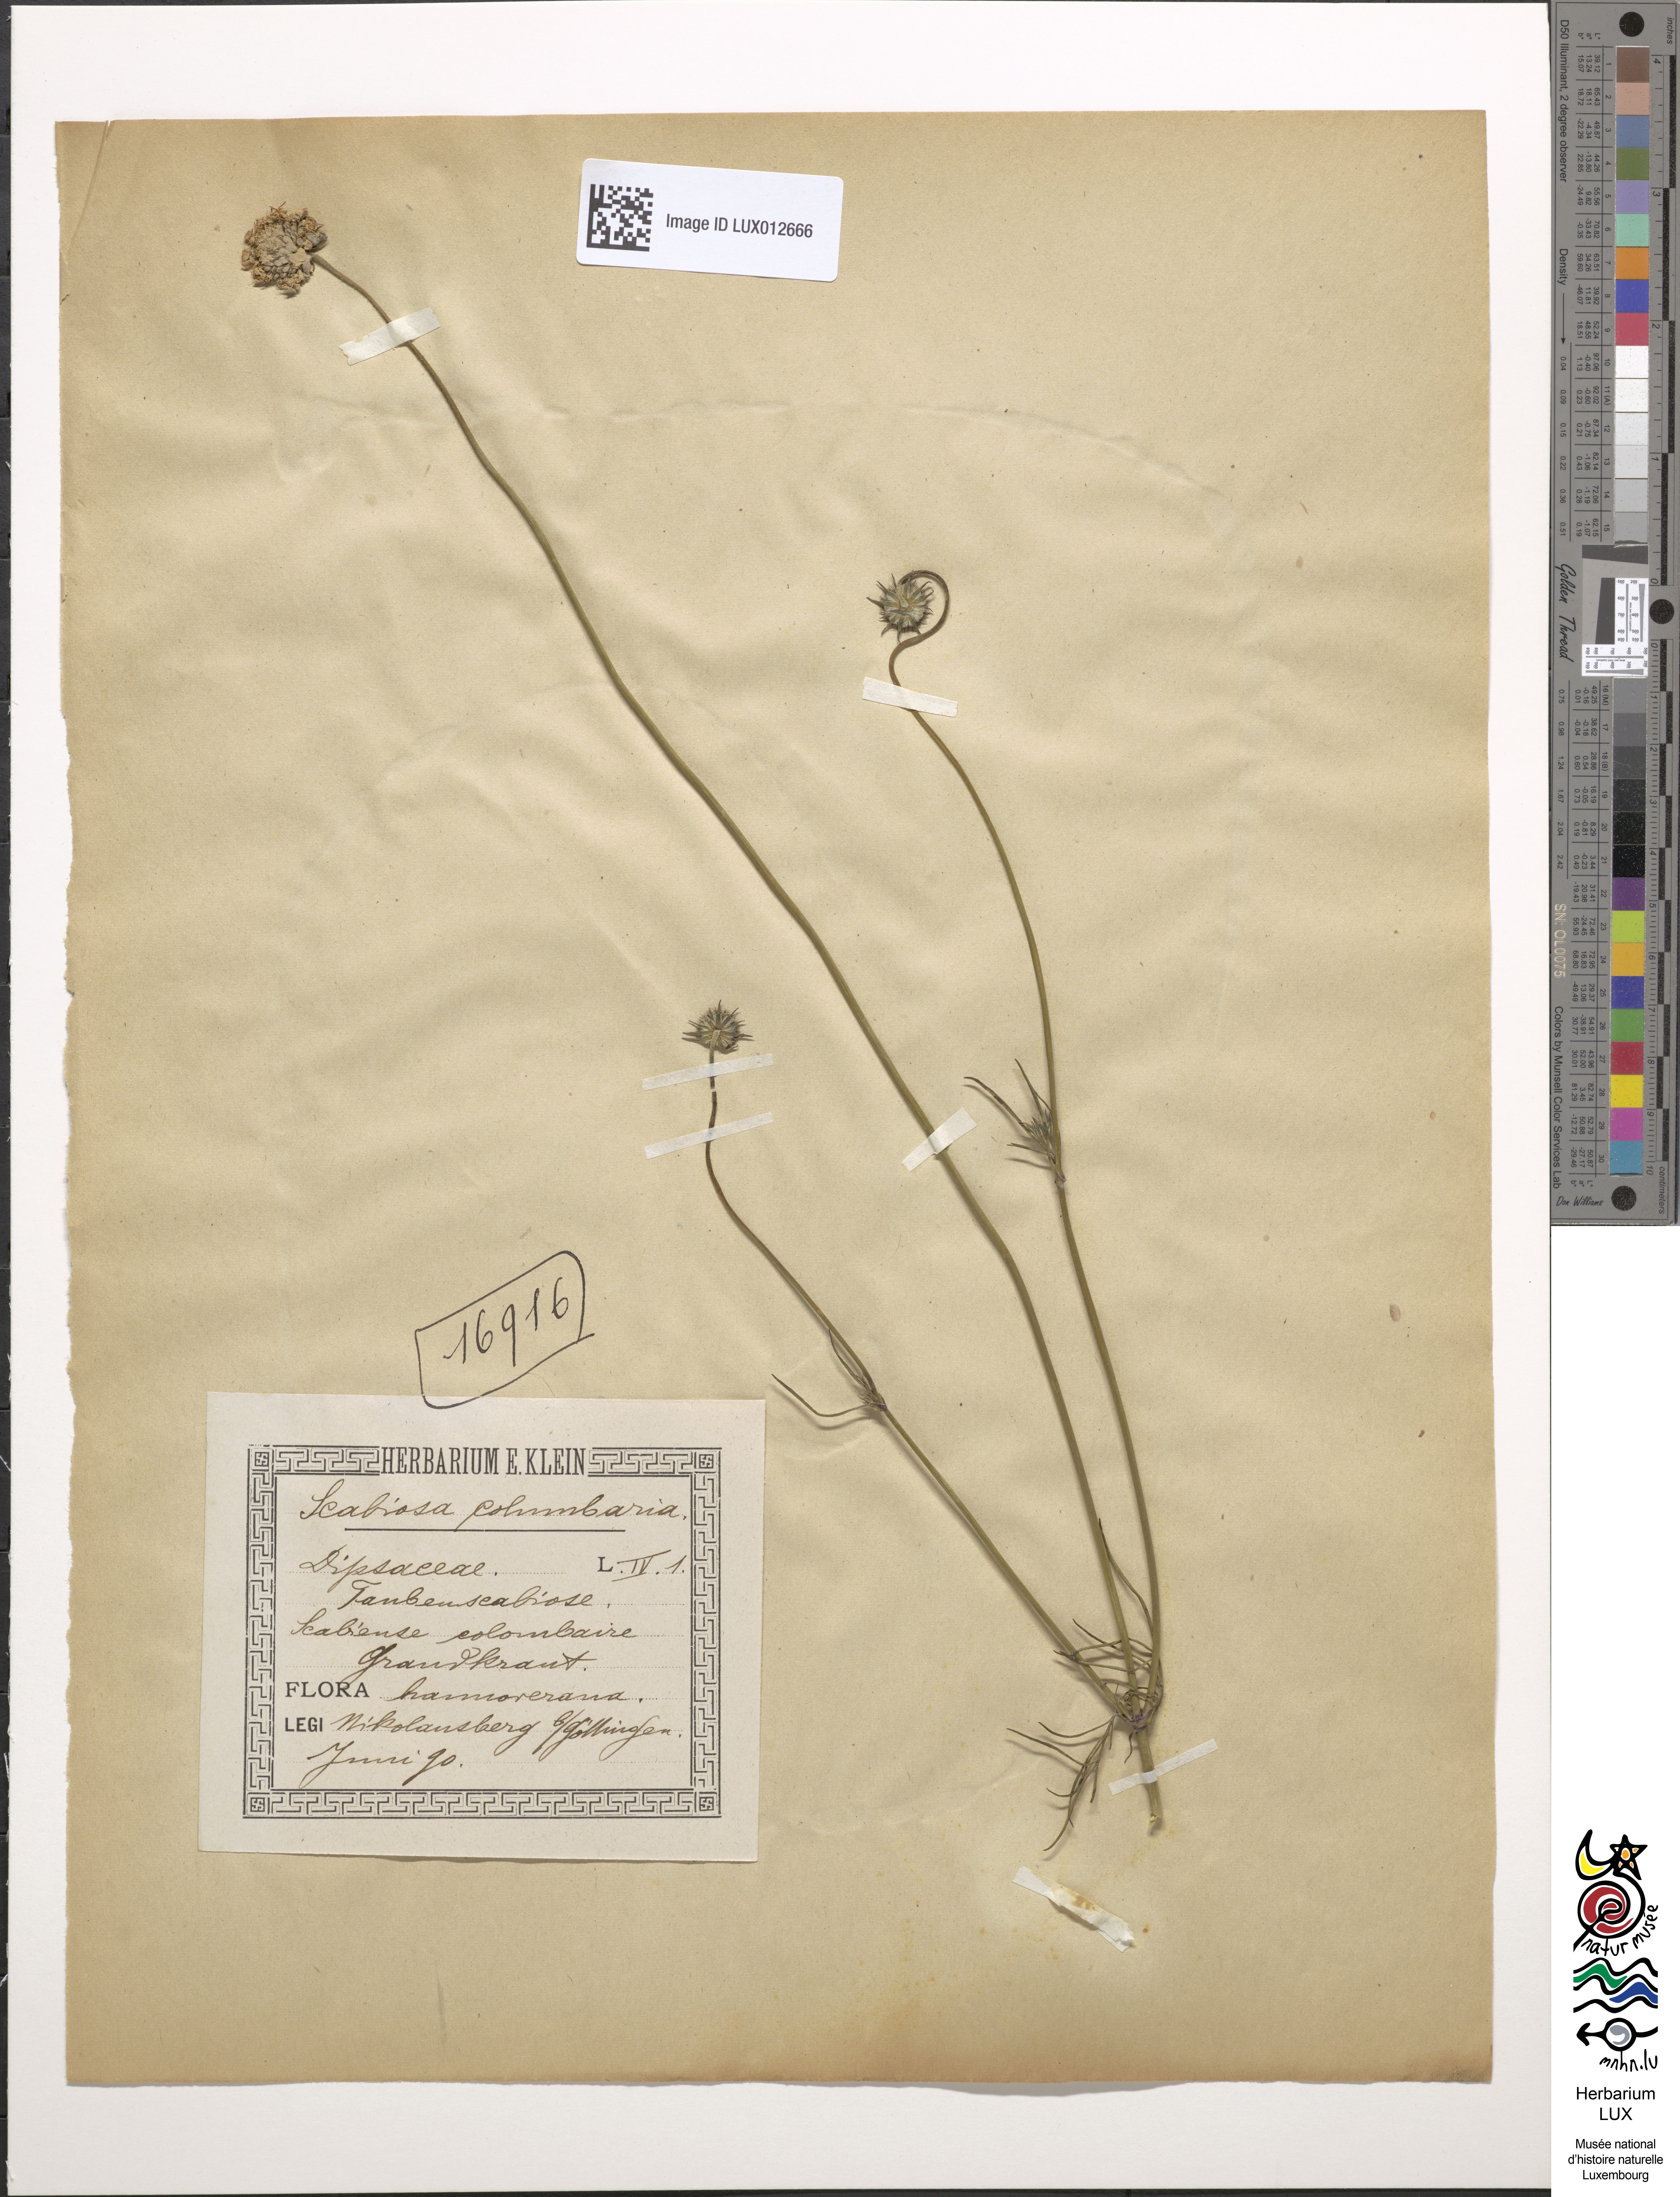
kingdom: Plantae
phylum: Tracheophyta
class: Magnoliopsida
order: Dipsacales
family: Caprifoliaceae
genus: Scabiosa
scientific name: Scabiosa columbaria
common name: Small scabious
